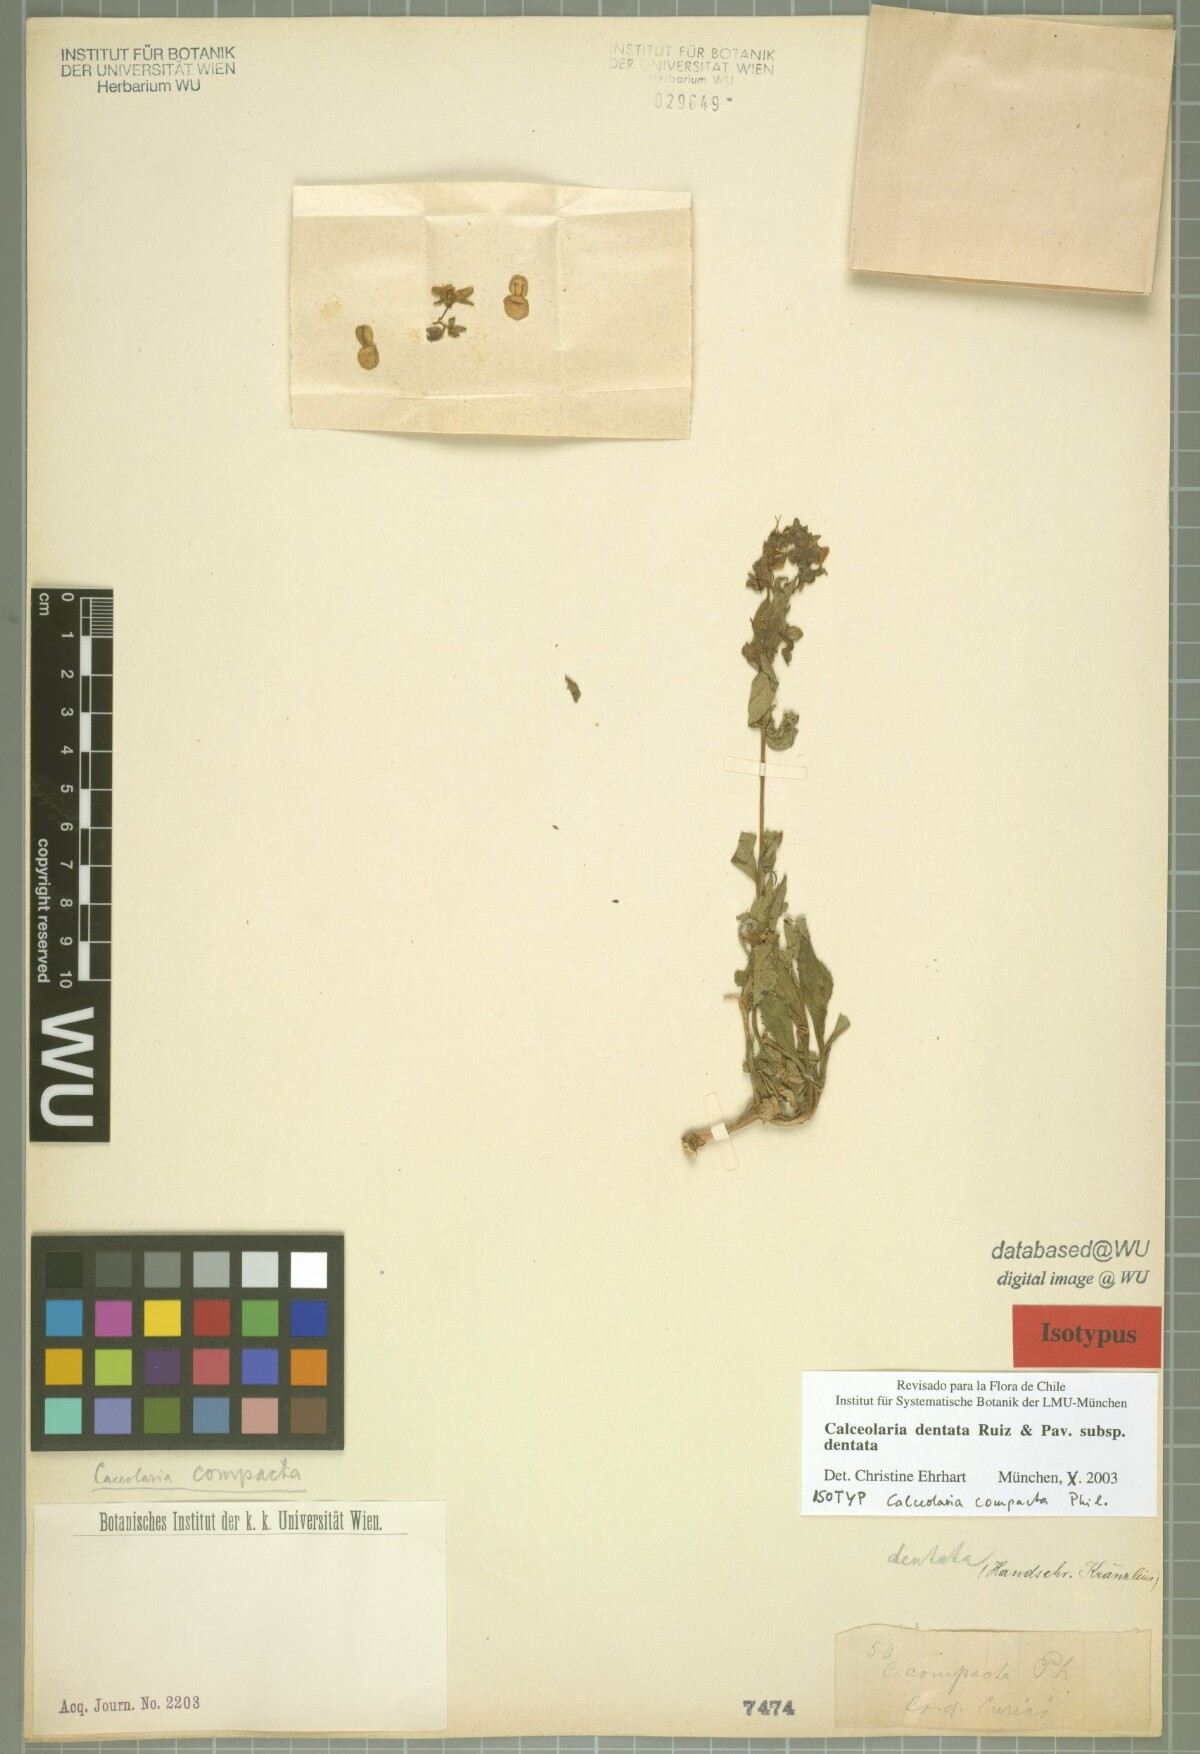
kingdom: Plantae
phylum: Tracheophyta
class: Magnoliopsida
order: Lamiales
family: Calceolariaceae
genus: Calceolaria
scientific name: Calceolaria dentata
